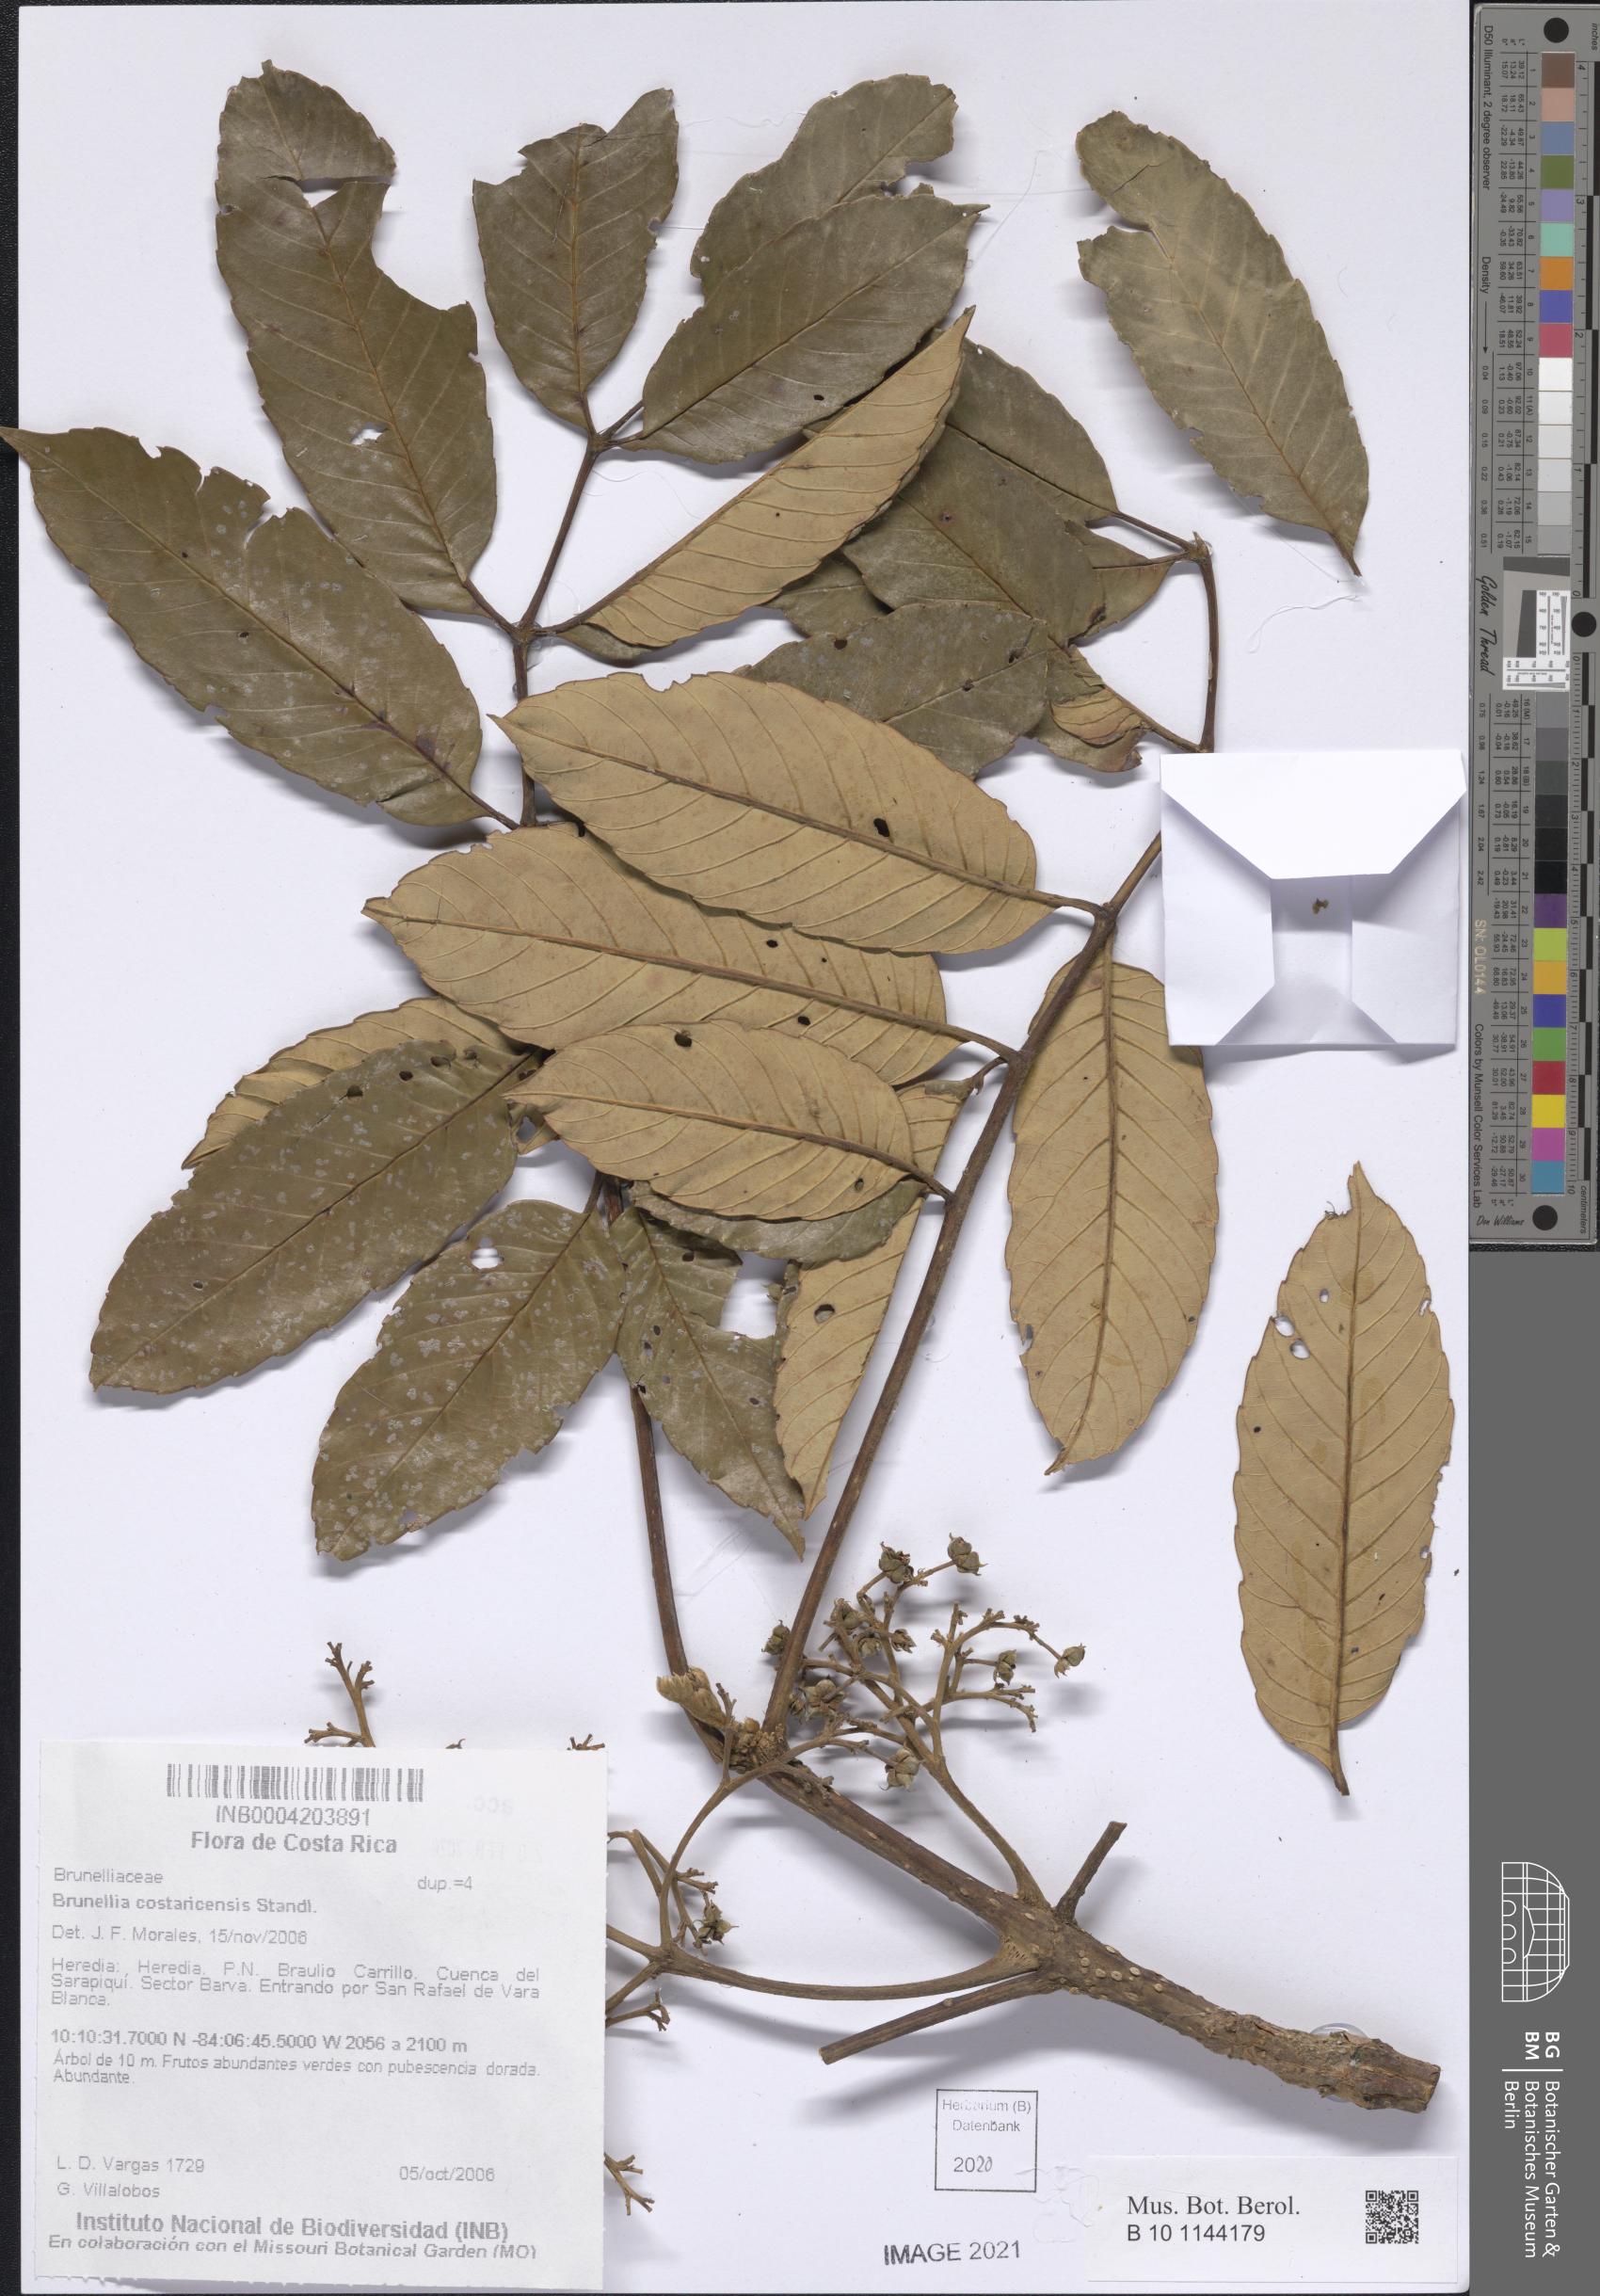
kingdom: Plantae
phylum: Tracheophyta
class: Magnoliopsida
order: Oxalidales
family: Brunelliaceae
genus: Brunellia
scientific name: Brunellia costaricensis
